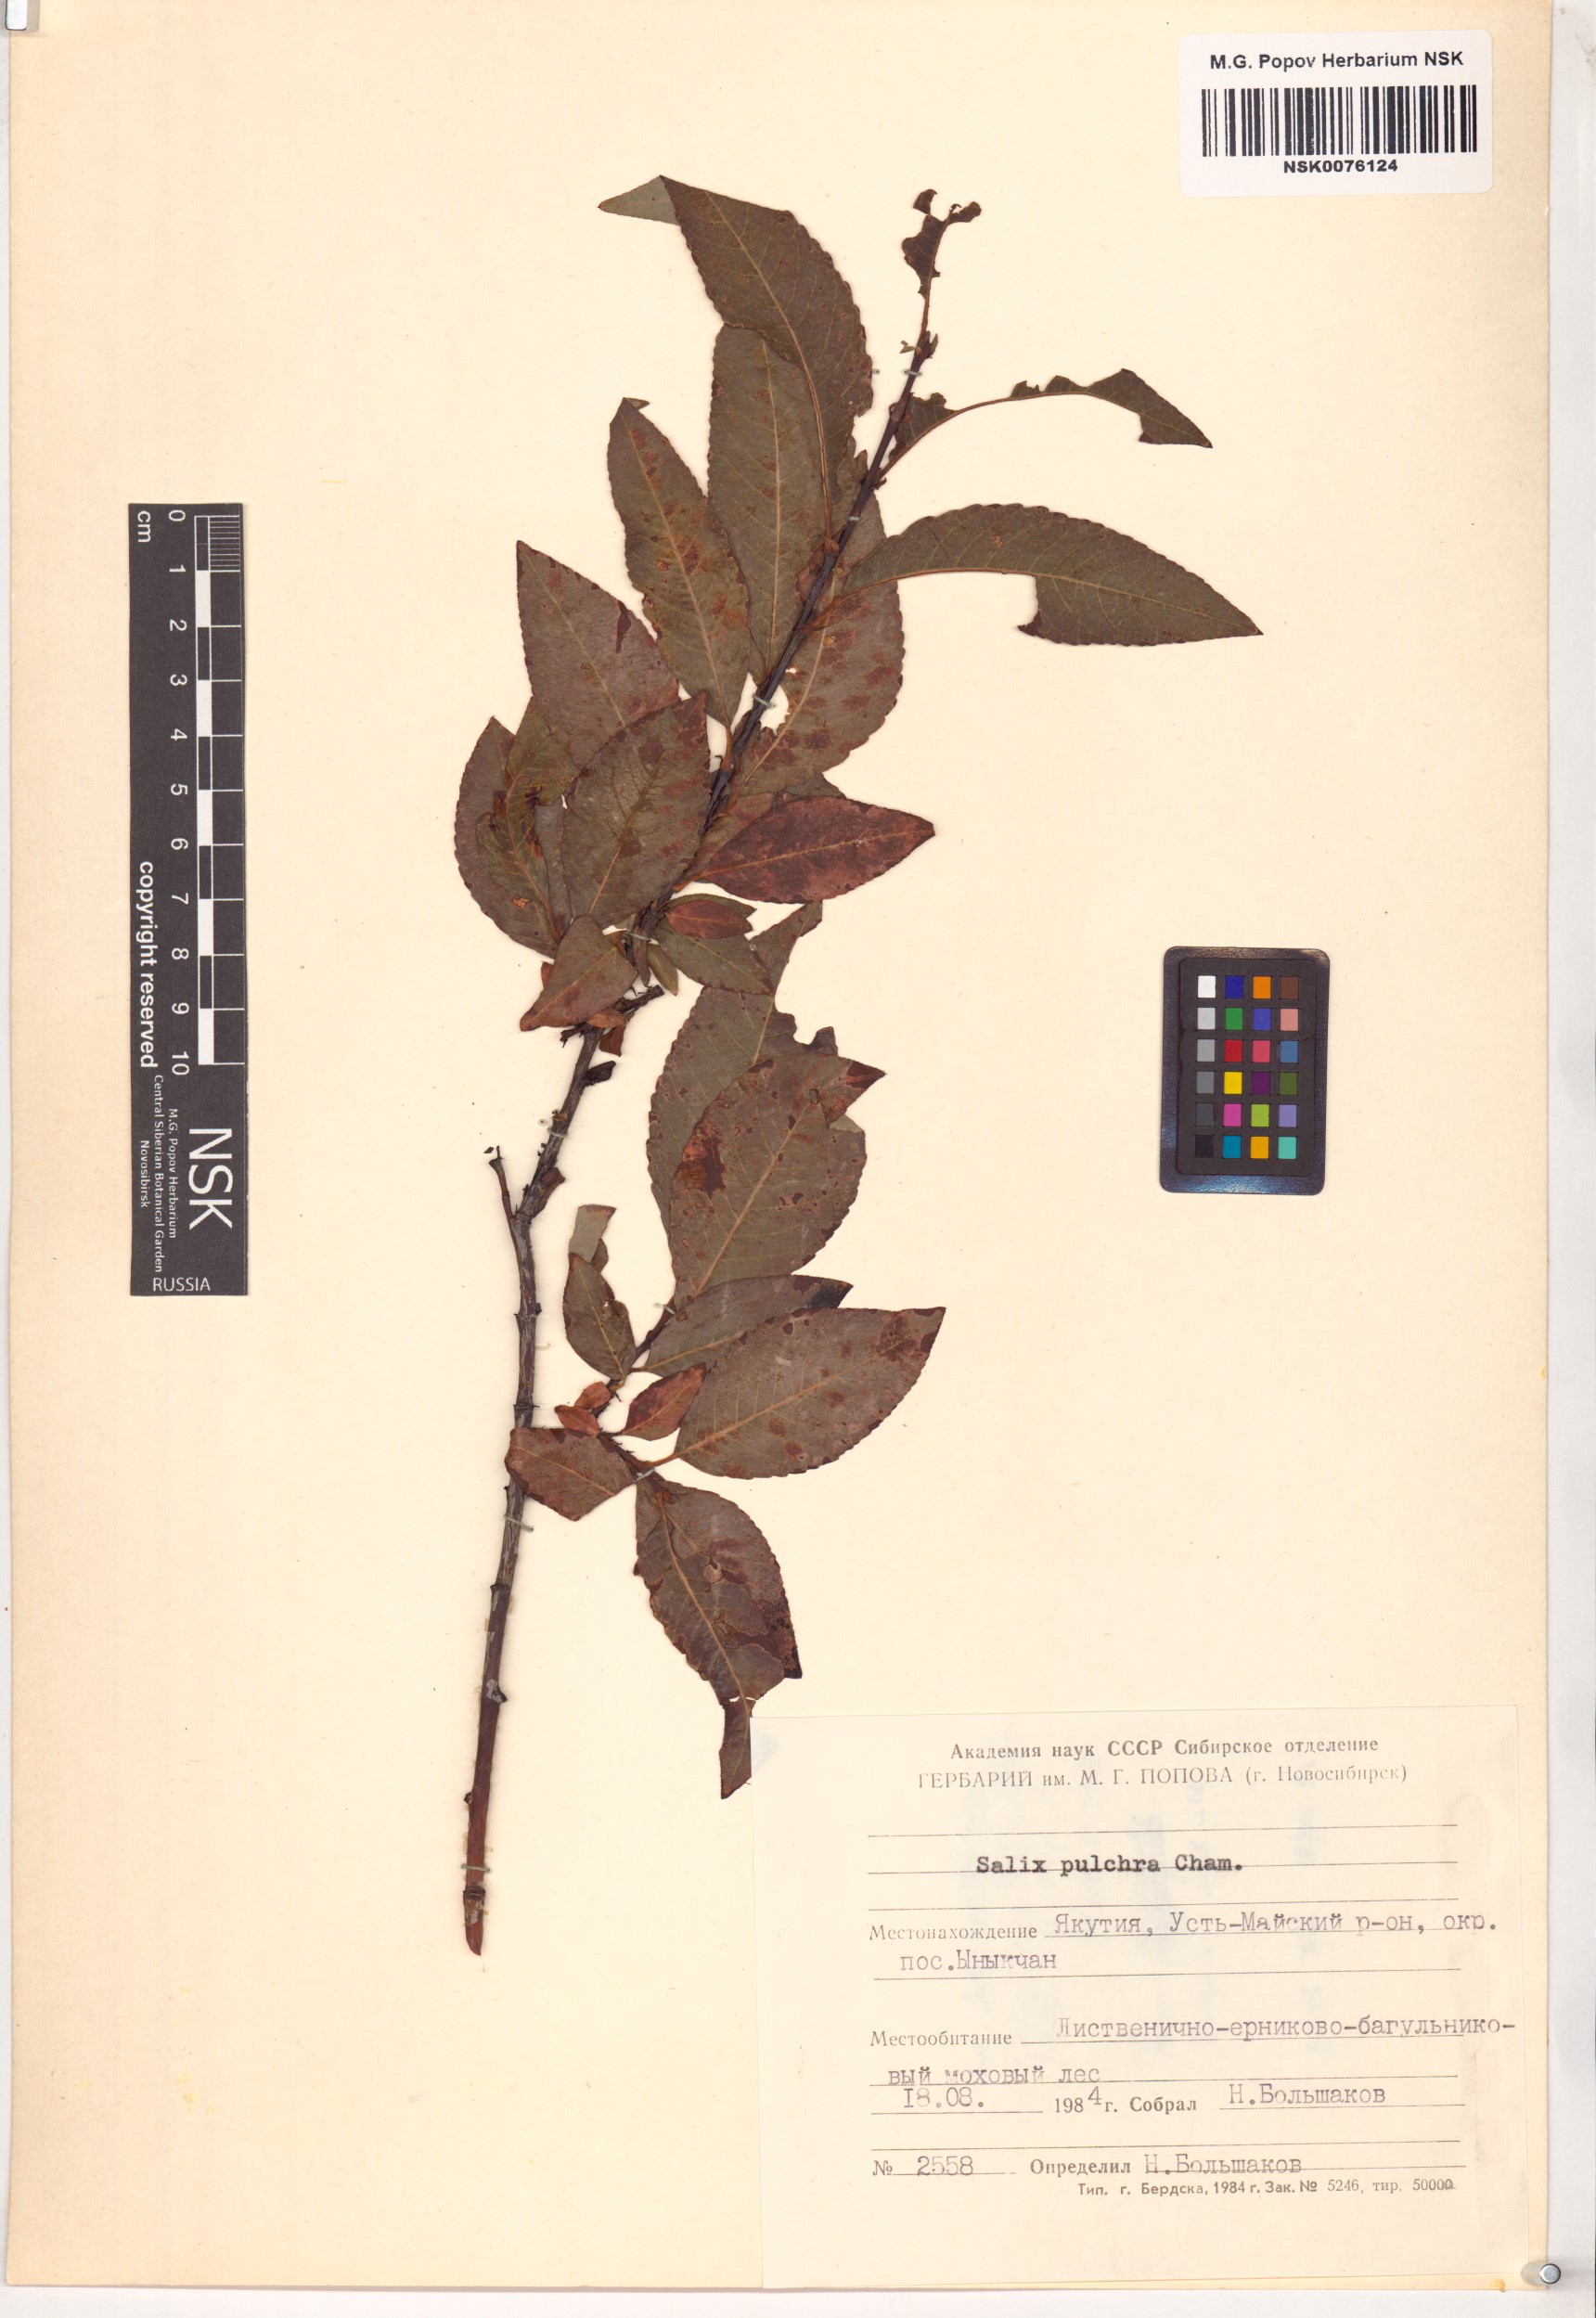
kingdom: Plantae
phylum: Tracheophyta
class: Magnoliopsida
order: Malpighiales
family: Salicaceae
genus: Salix
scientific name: Salix pulchra
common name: Diamond-leaved willow
